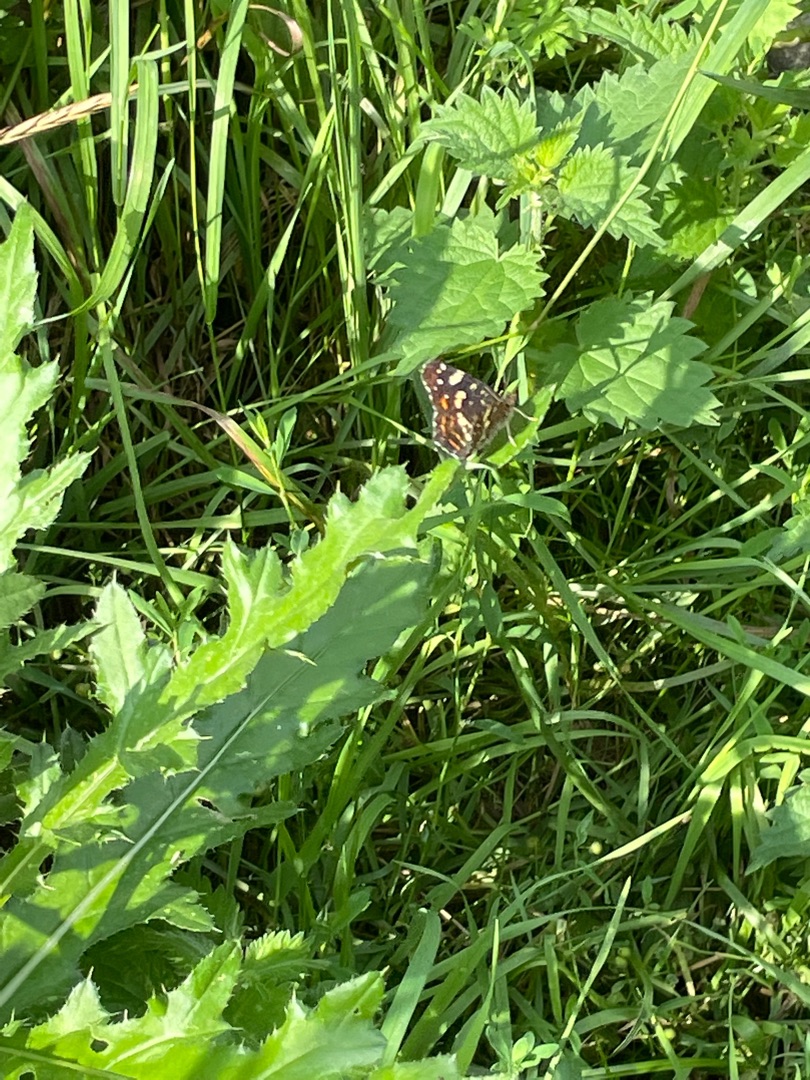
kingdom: Animalia
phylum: Arthropoda
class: Insecta
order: Lepidoptera
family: Nymphalidae
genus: Araschnia
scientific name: Araschnia levana
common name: Nældesommerfugl
